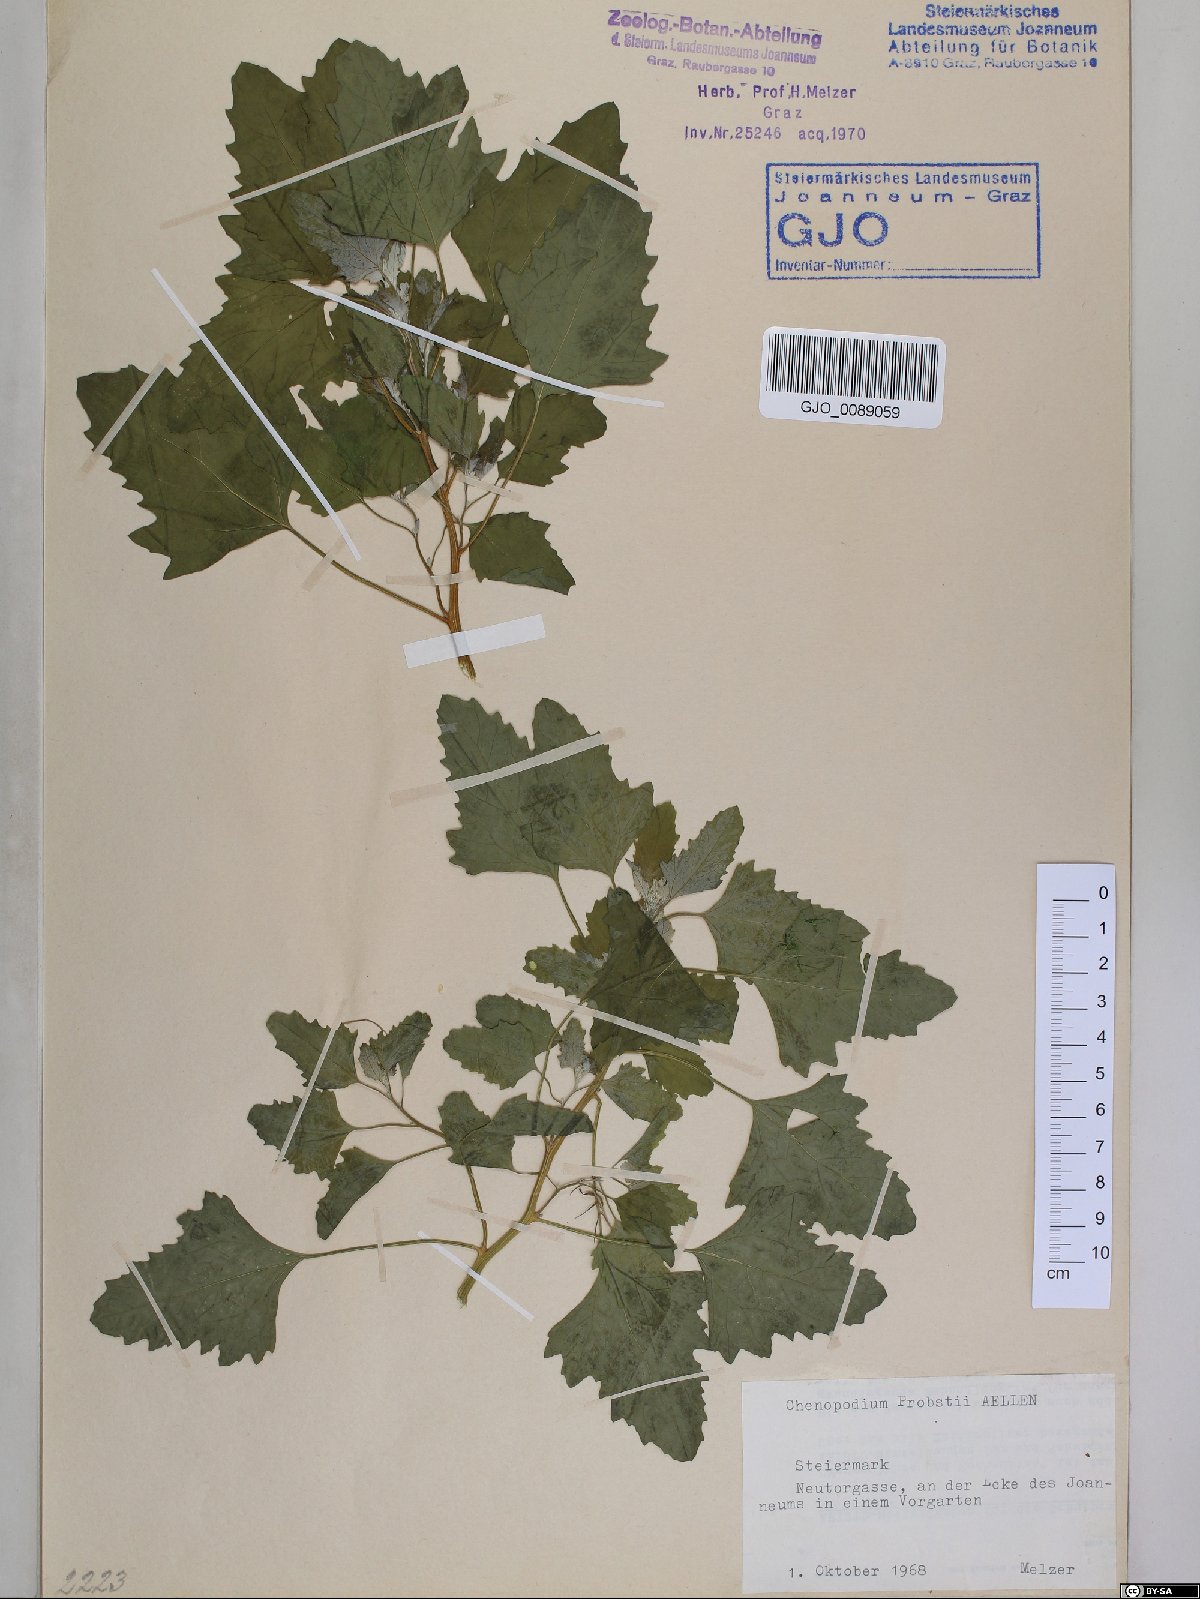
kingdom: Plantae
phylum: Tracheophyta
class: Magnoliopsida
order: Caryophyllales
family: Amaranthaceae
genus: Chenopodium
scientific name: Chenopodium probstii
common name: Probst's goosefoot
